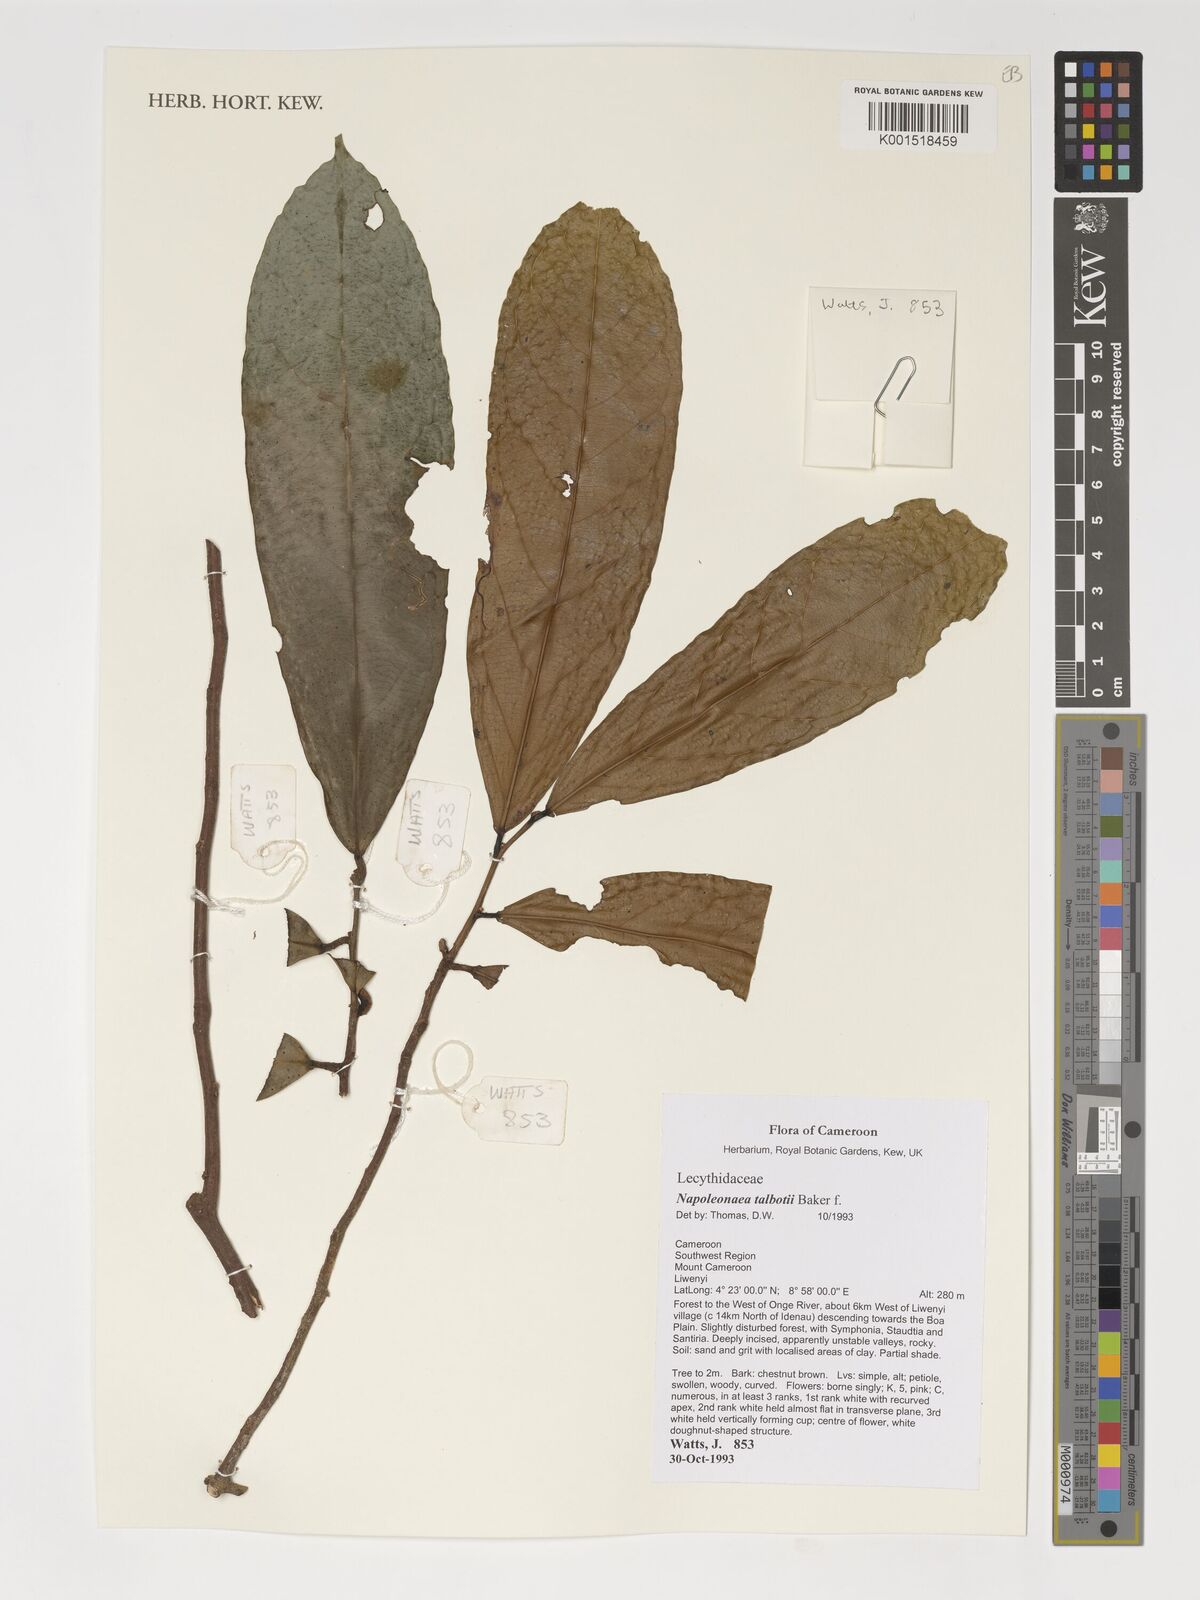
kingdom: Plantae
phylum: Tracheophyta
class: Magnoliopsida
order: Ericales
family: Lecythidaceae
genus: Napoleonaea
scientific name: Napoleonaea talbotii
